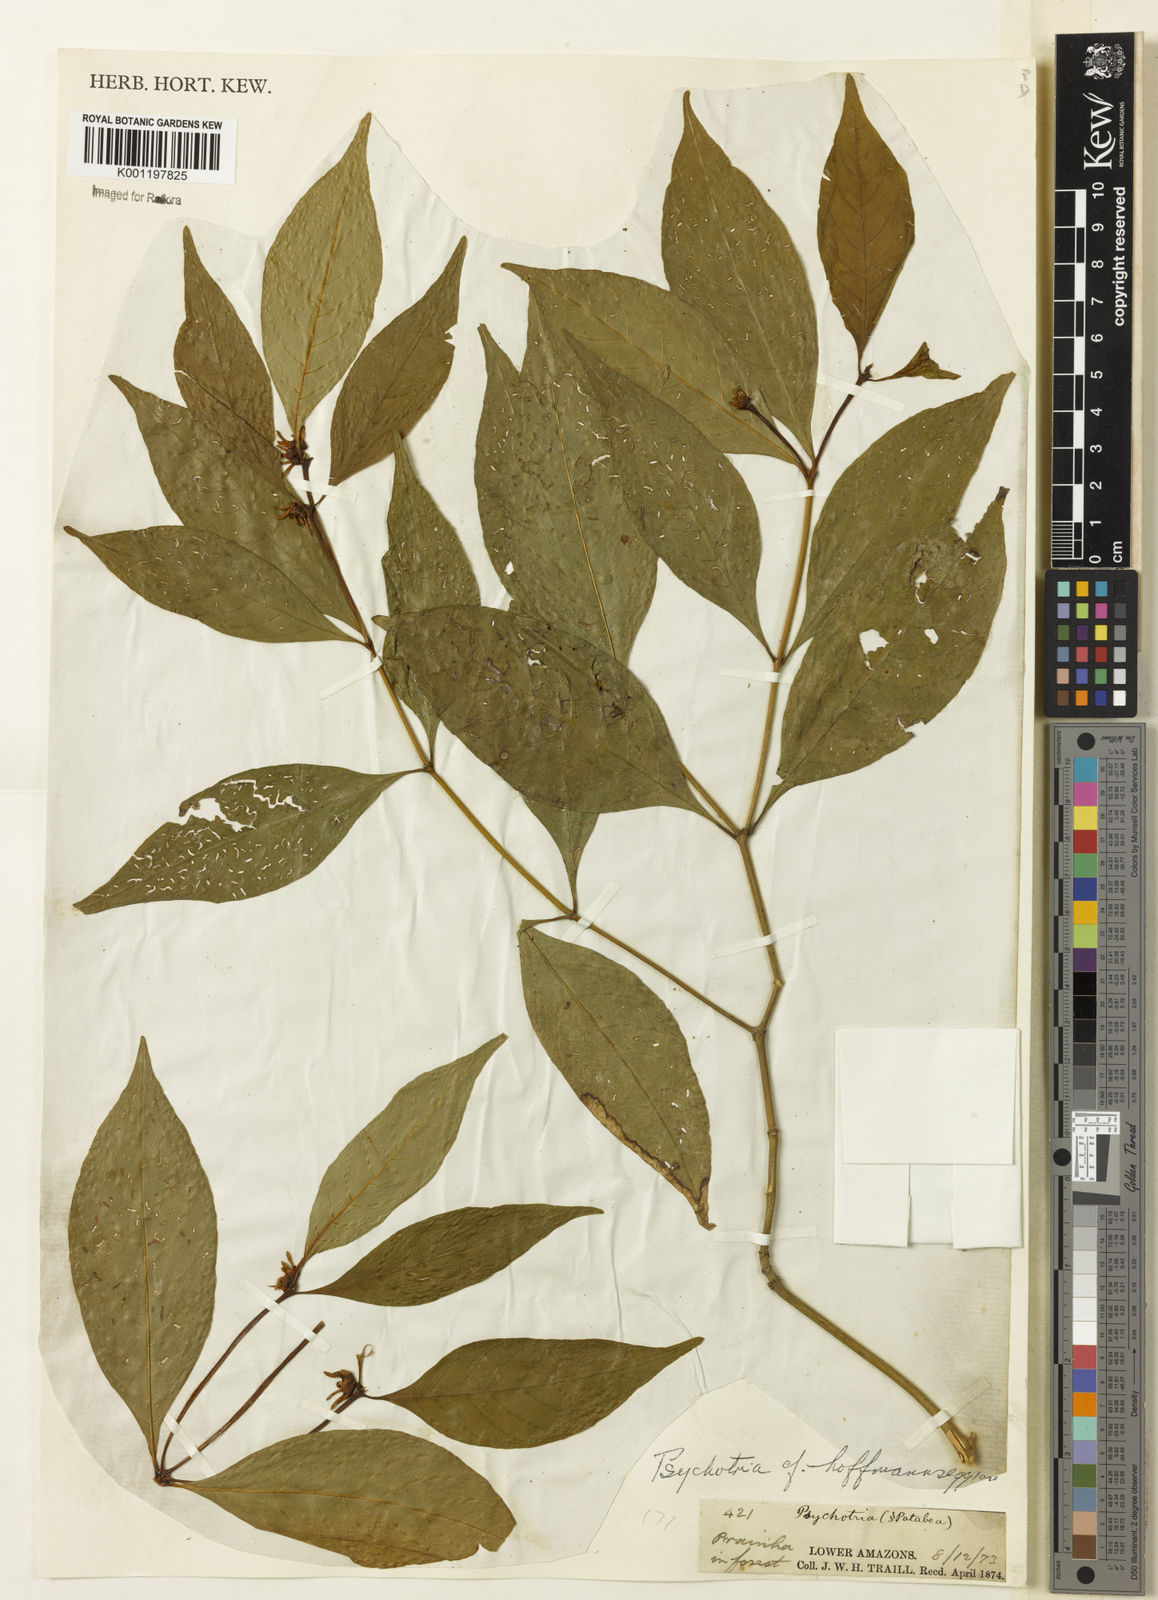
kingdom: Plantae
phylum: Tracheophyta
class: Magnoliopsida
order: Gentianales
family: Rubiaceae
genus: Psychotria
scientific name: Psychotria
